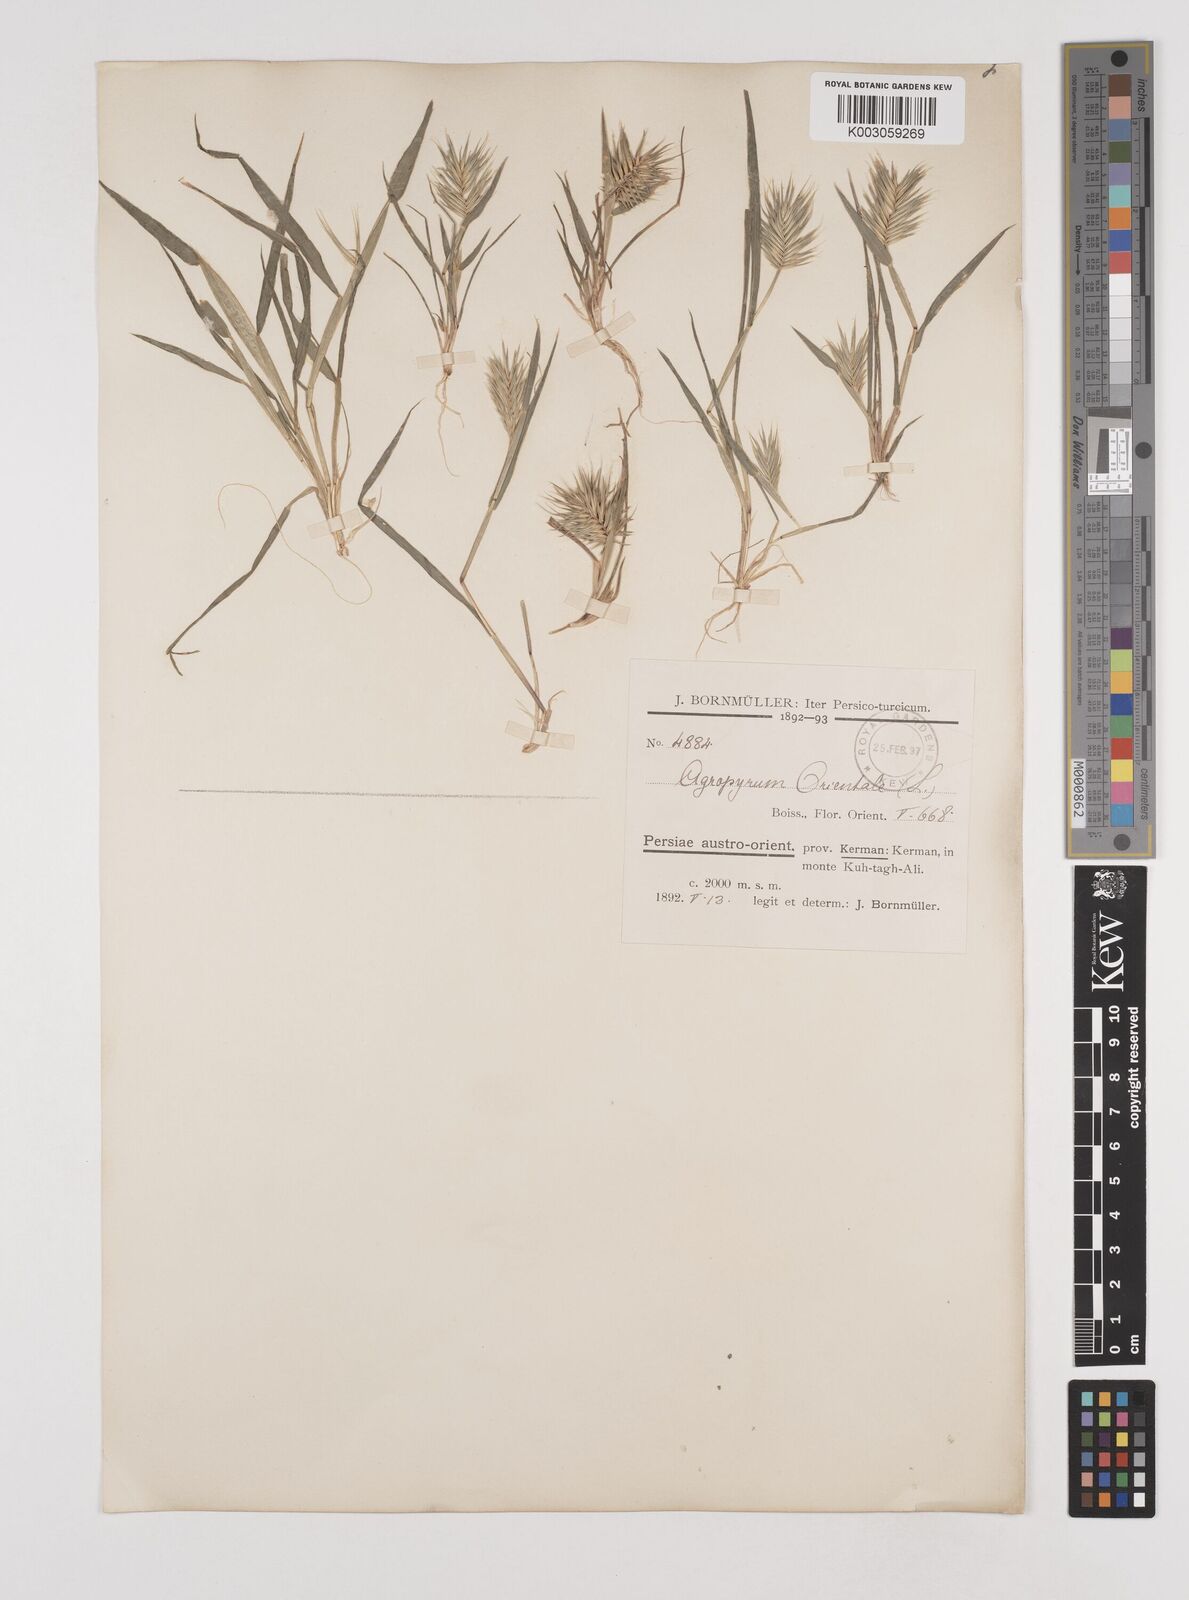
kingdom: Plantae
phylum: Tracheophyta
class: Liliopsida
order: Poales
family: Poaceae
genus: Eremopyrum
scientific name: Eremopyrum bonaepartis
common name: Tapertip false wheatgrass
